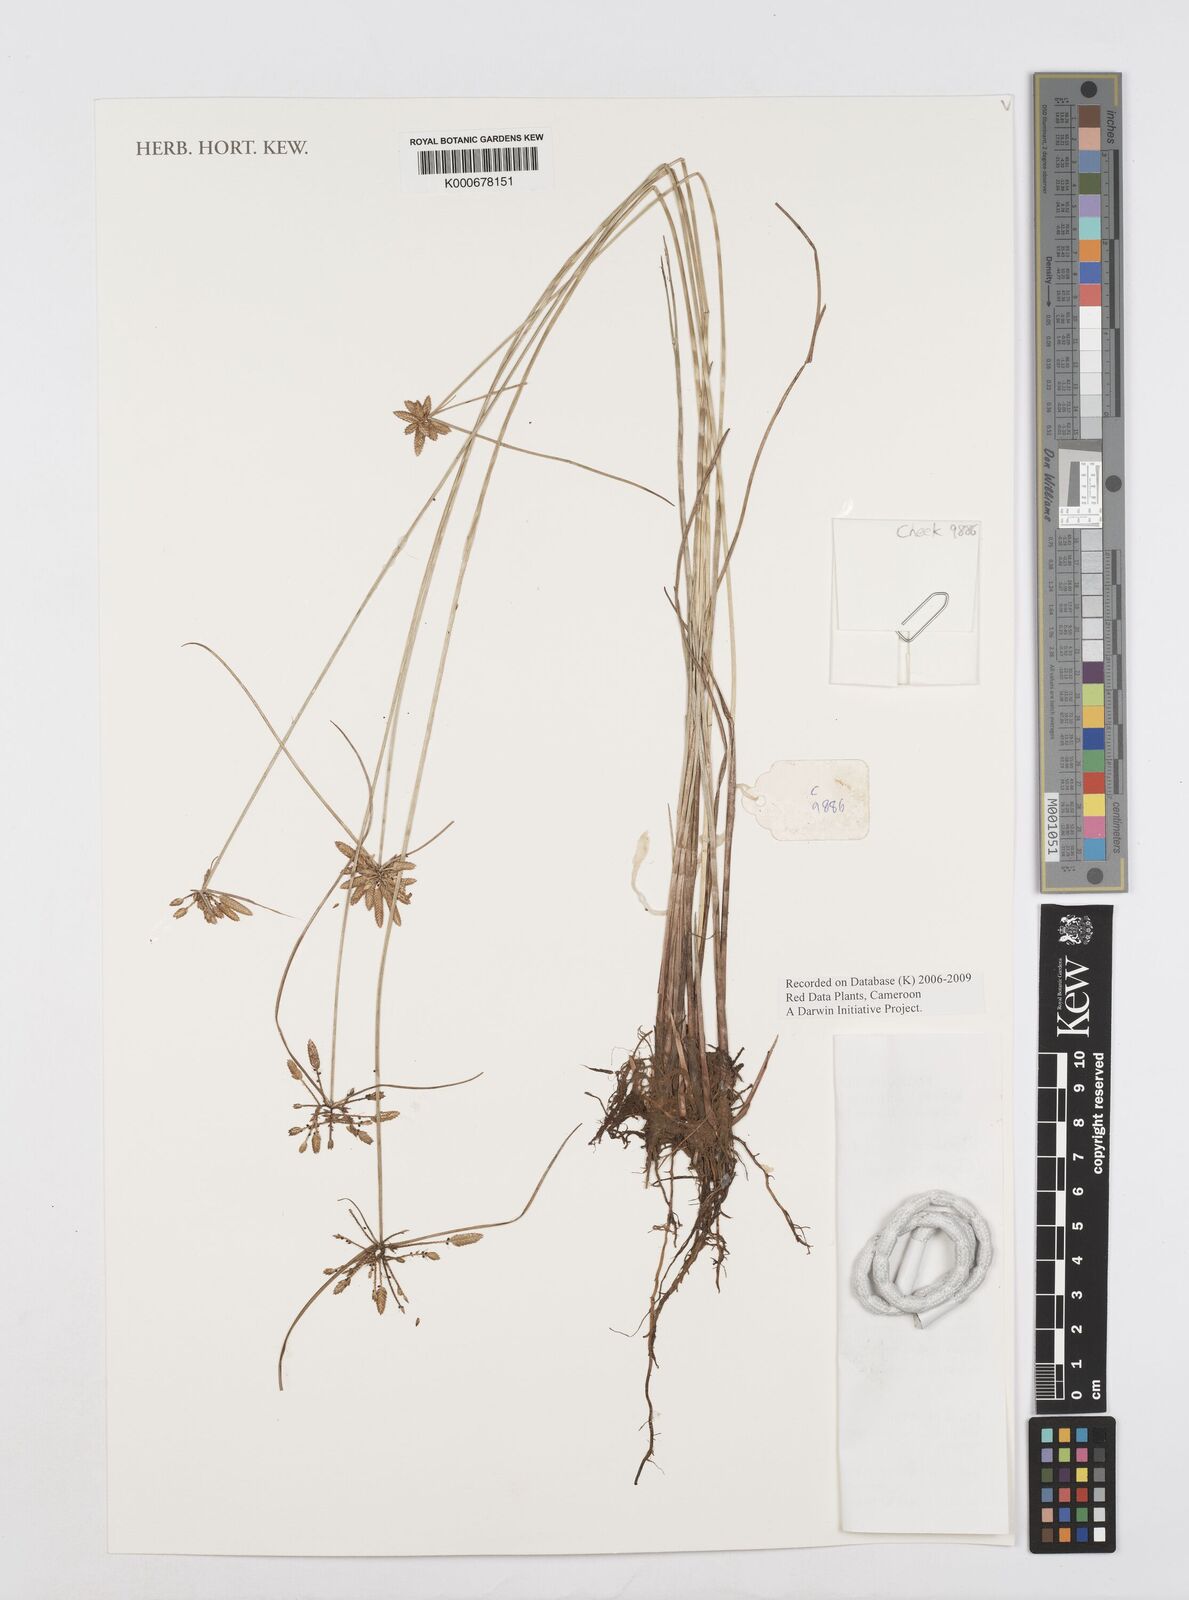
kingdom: Plantae
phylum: Tracheophyta
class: Liliopsida
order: Poales
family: Cyperaceae
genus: Cyperus
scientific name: Cyperus unioloides
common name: Uniola flatsedge
